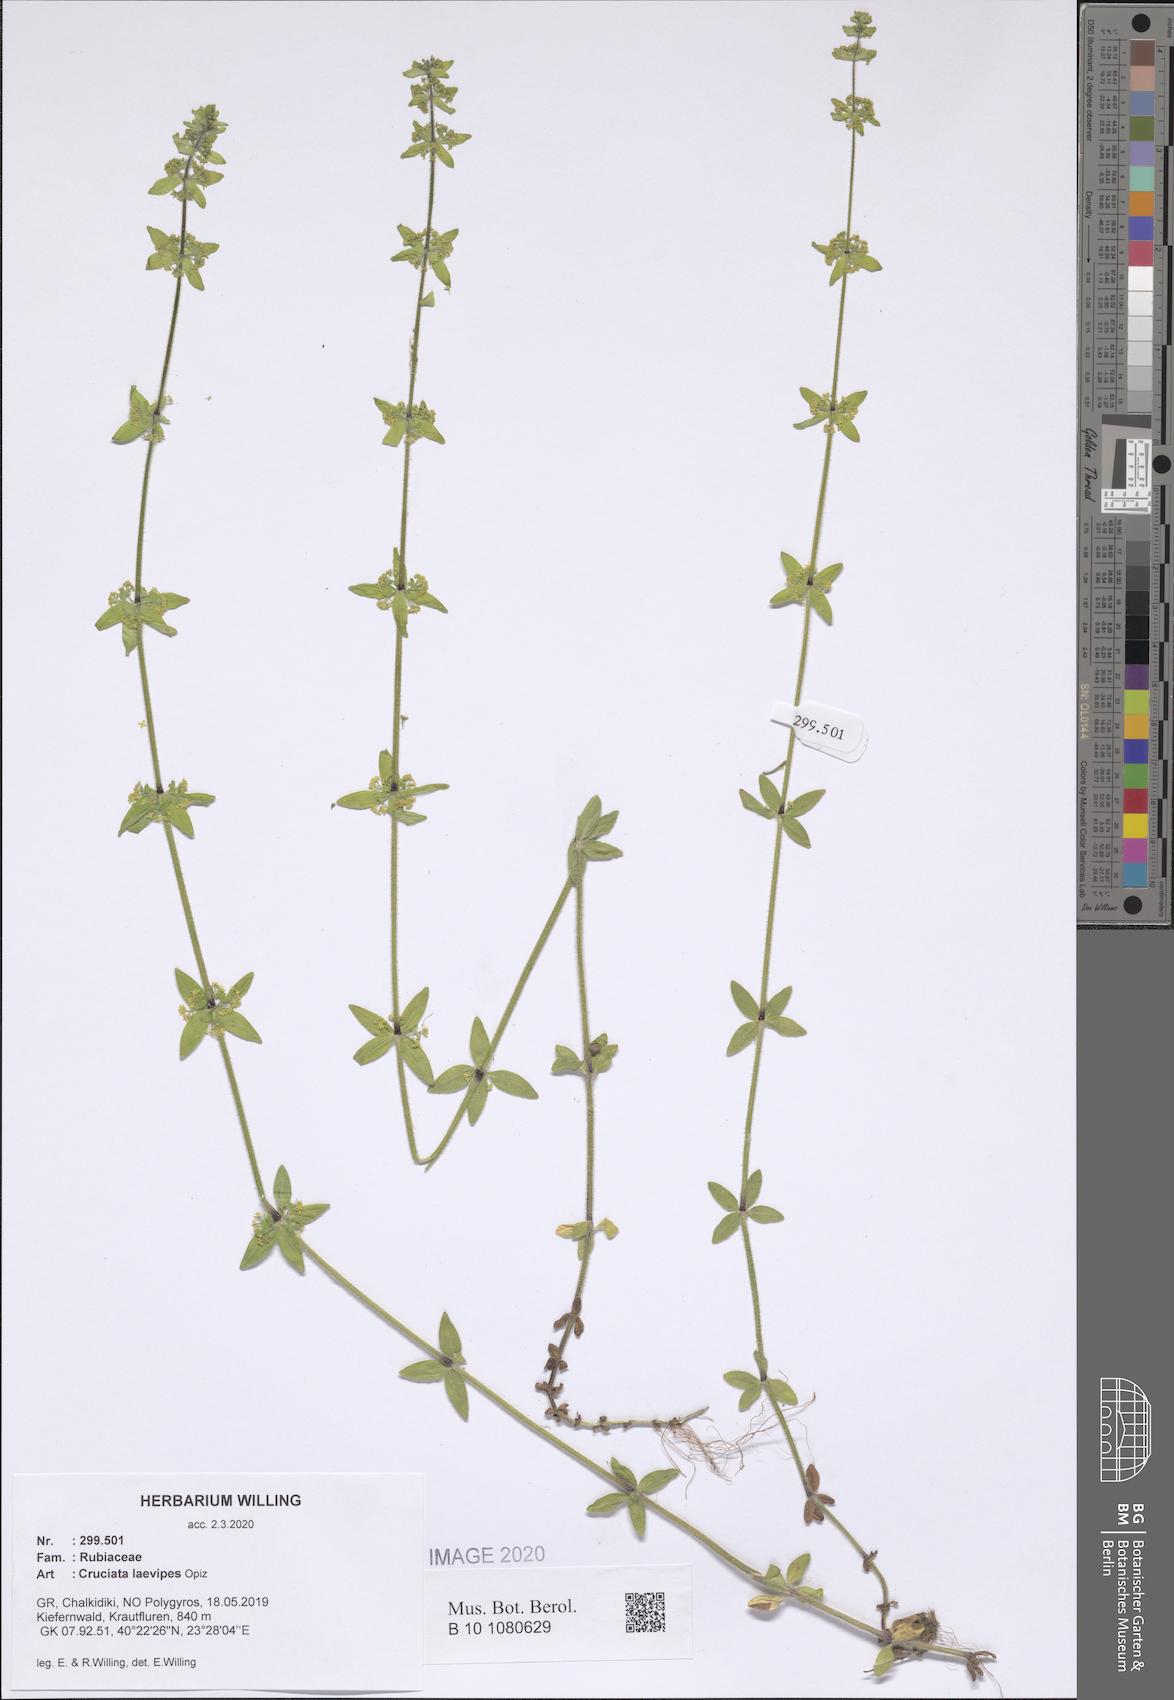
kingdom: Plantae
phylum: Tracheophyta
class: Magnoliopsida
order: Gentianales
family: Rubiaceae
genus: Cruciata
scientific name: Cruciata laevipes
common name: Crosswort
